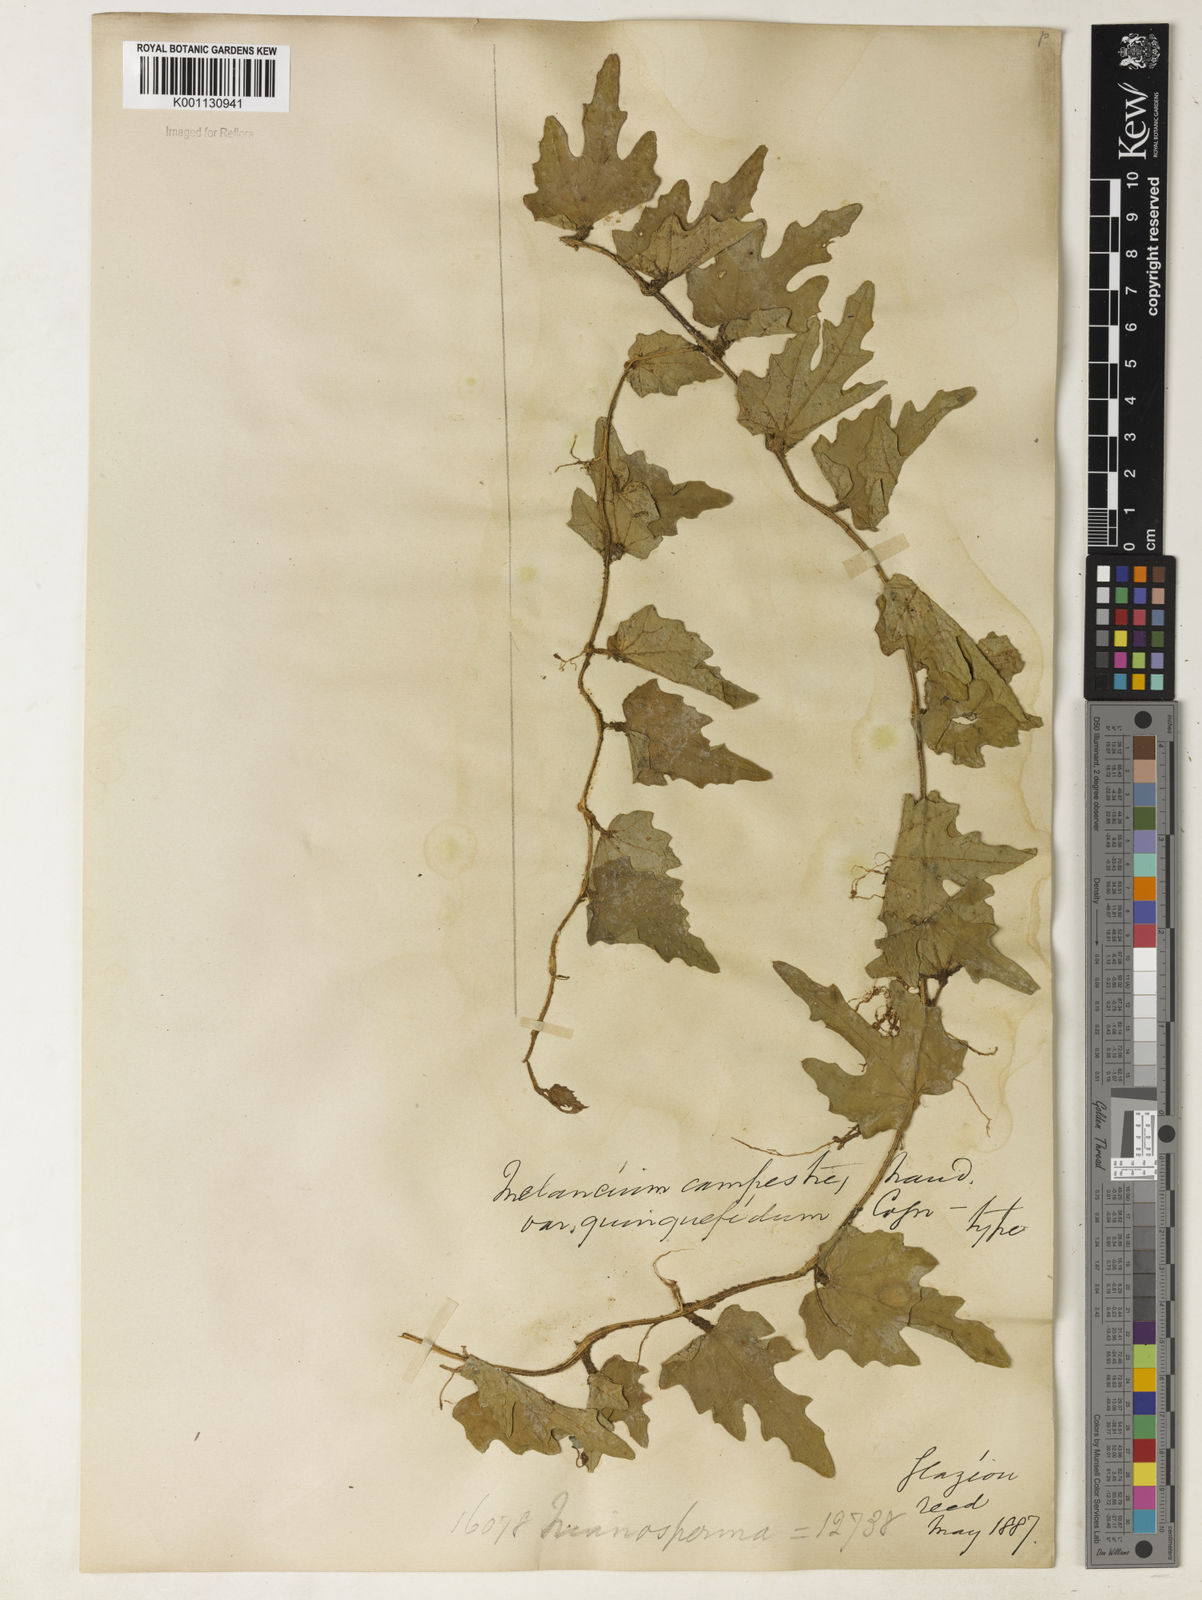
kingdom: Plantae
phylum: Tracheophyta
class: Magnoliopsida
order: Cucurbitales
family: Cucurbitaceae
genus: Melothria
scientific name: Melothria campestris
